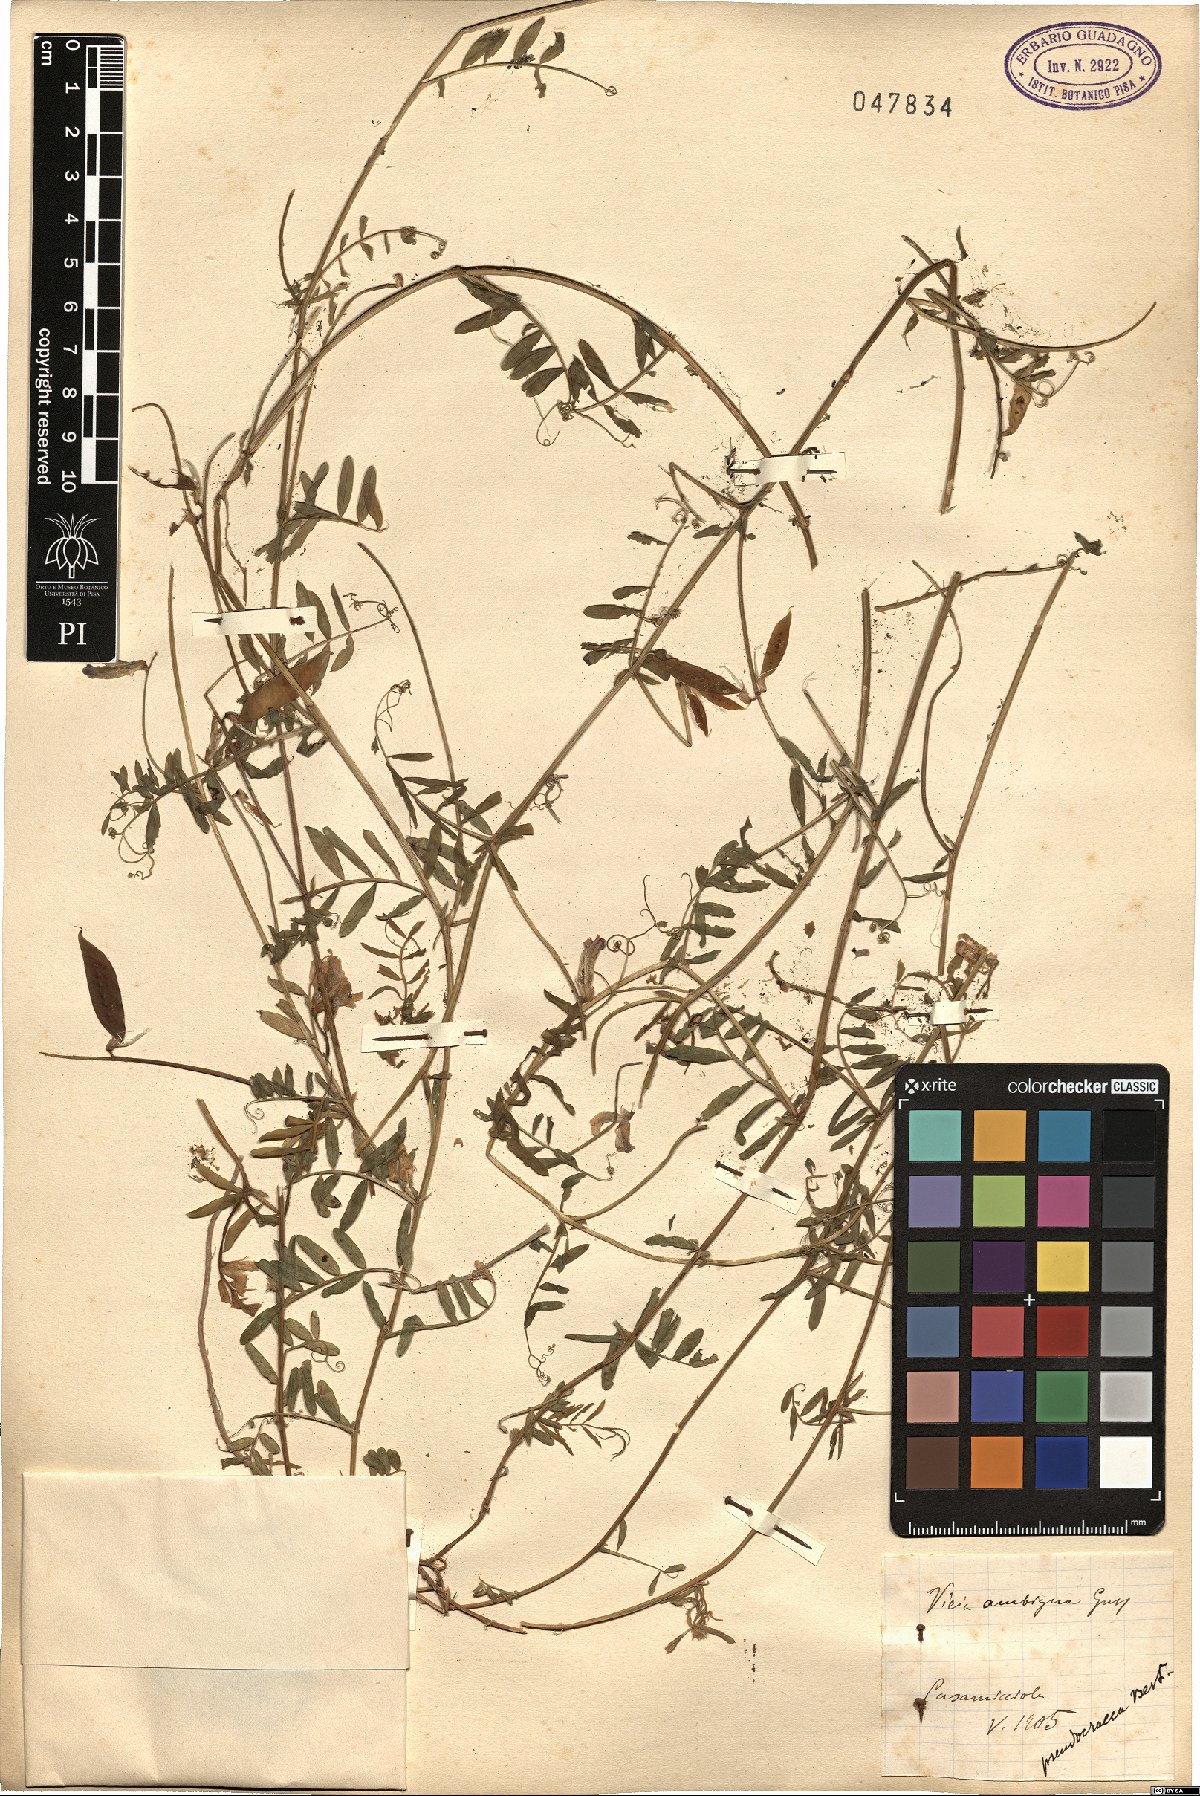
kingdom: Plantae
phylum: Tracheophyta
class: Magnoliopsida
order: Fabales
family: Fabaceae
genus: Vicia
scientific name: Vicia villosa
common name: Fodder vetch
